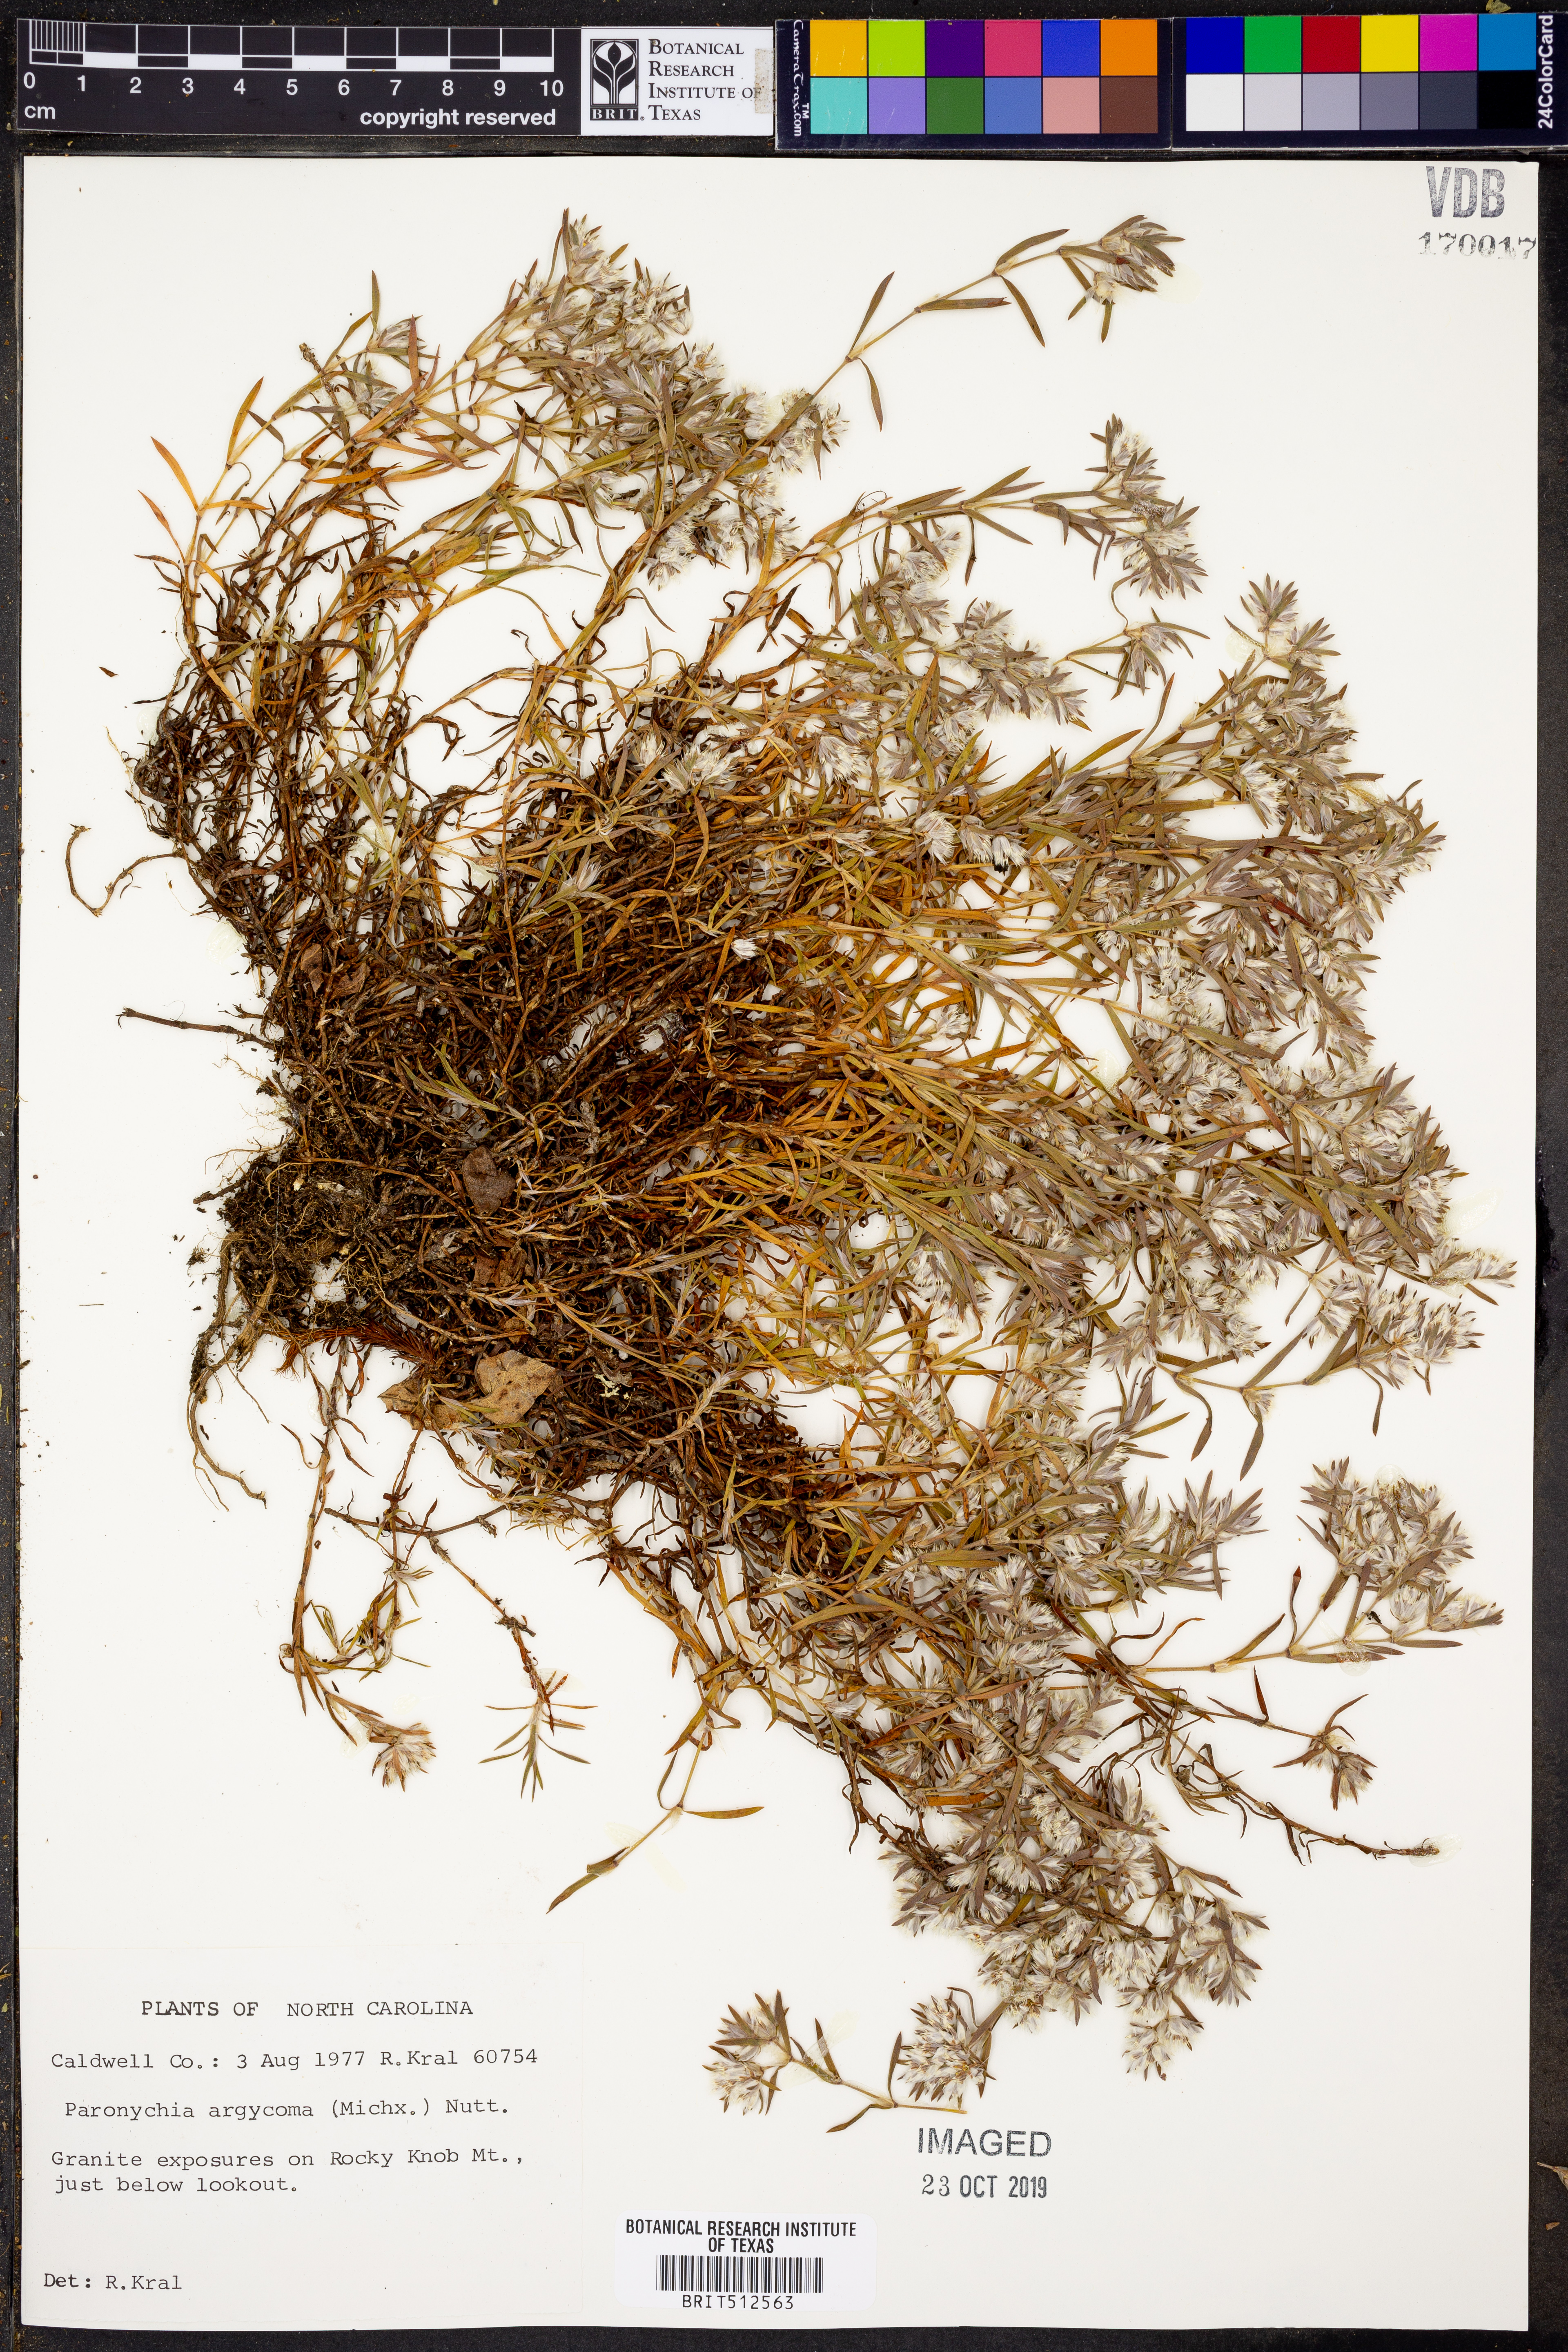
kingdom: Plantae
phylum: Tracheophyta
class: Magnoliopsida
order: Caryophyllales
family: Caryophyllaceae
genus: Paronychia
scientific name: Paronychia argyrocoma
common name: Silverling
